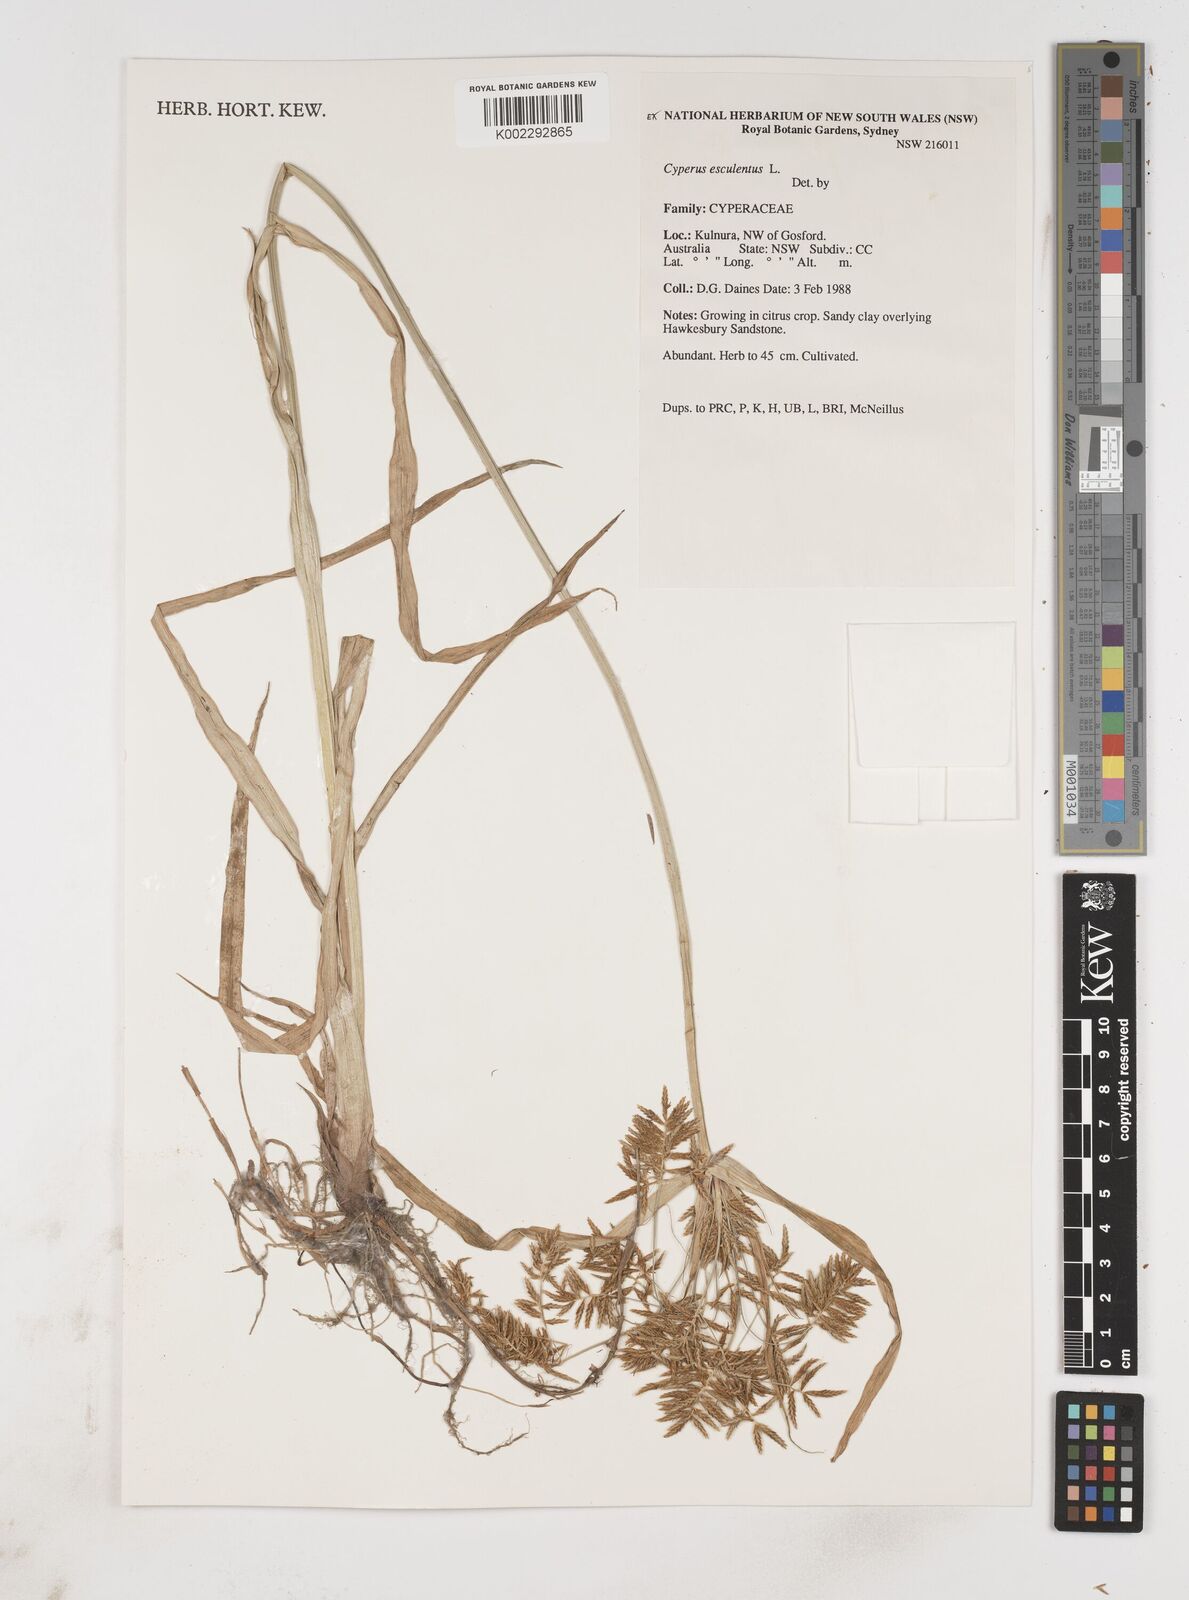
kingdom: Plantae
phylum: Tracheophyta
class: Liliopsida
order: Poales
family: Cyperaceae
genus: Cyperus
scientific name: Cyperus esculentus
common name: Yellow nutsedge
